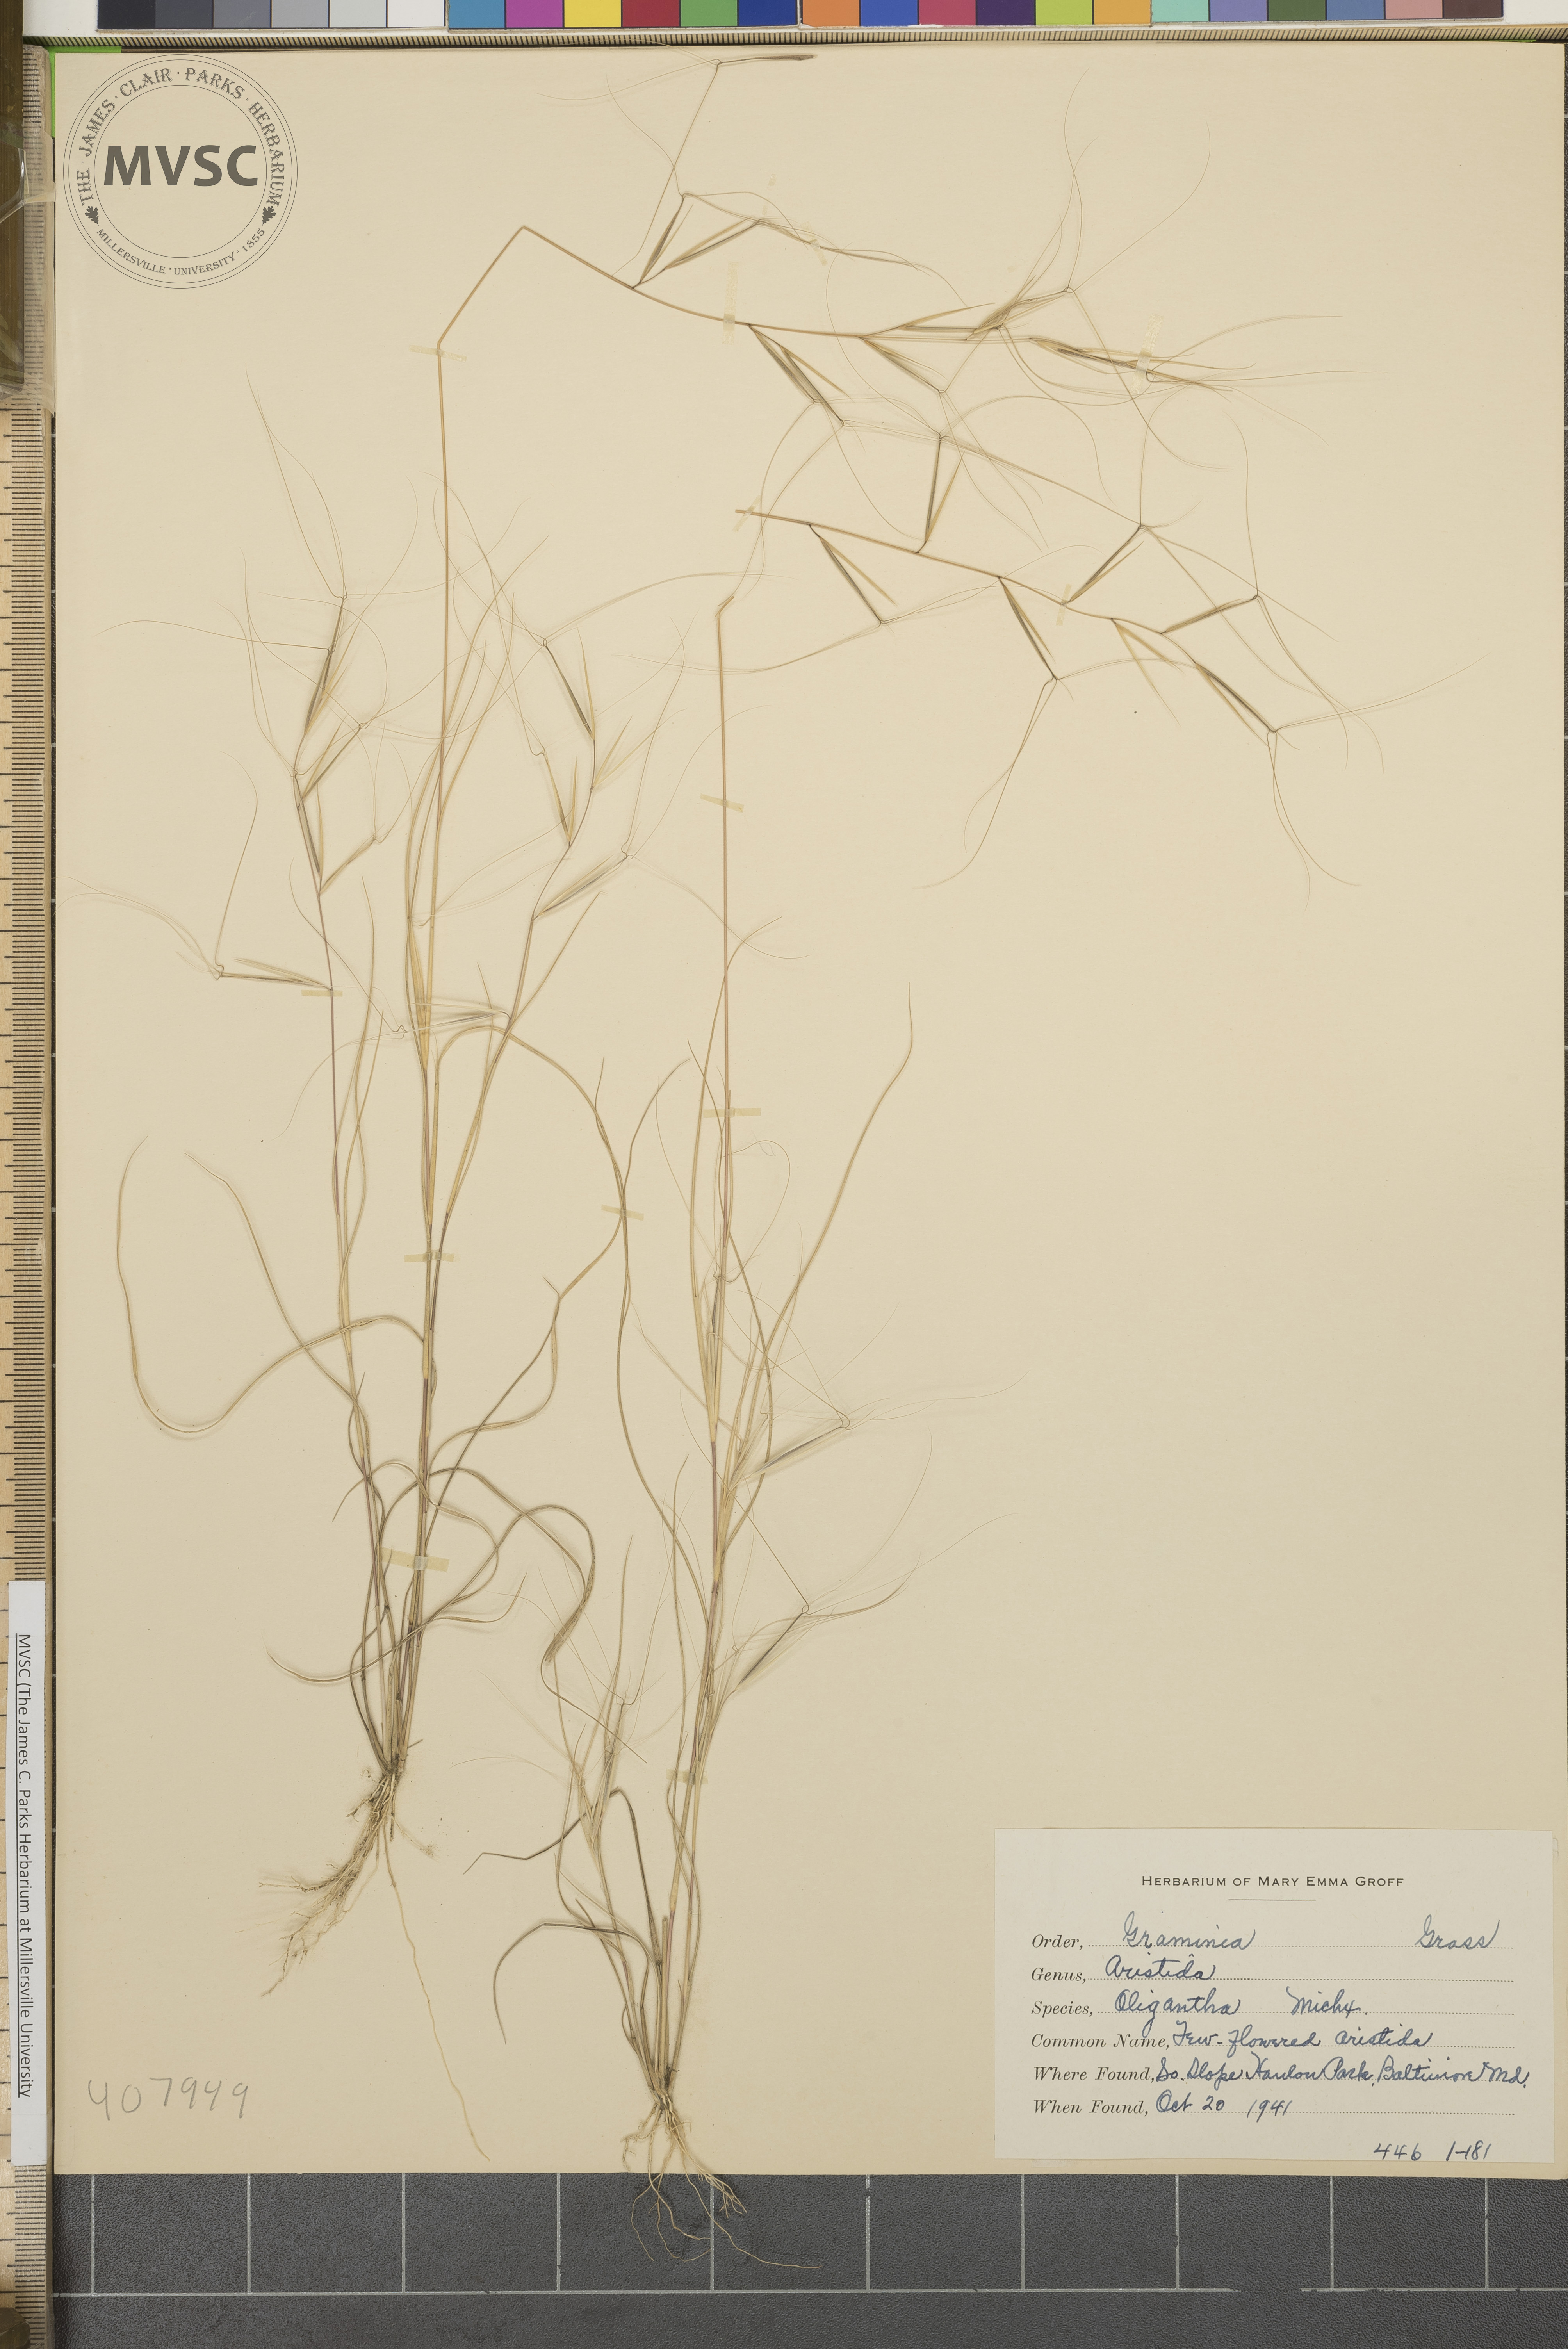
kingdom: Plantae
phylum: Tracheophyta
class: Liliopsida
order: Poales
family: Poaceae
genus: Aristida
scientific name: Aristida oligantha
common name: Few-flowered aristida
